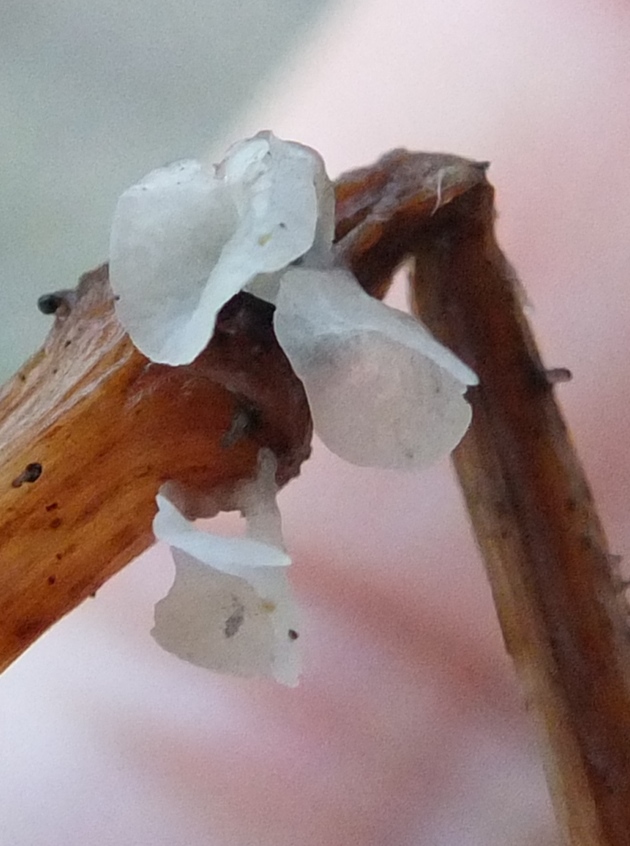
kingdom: Fungi
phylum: Basidiomycota
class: Agaricomycetes
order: Agaricales
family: Marasmiaceae
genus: Calyptella
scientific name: Calyptella capula
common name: hvidlig nældehue
